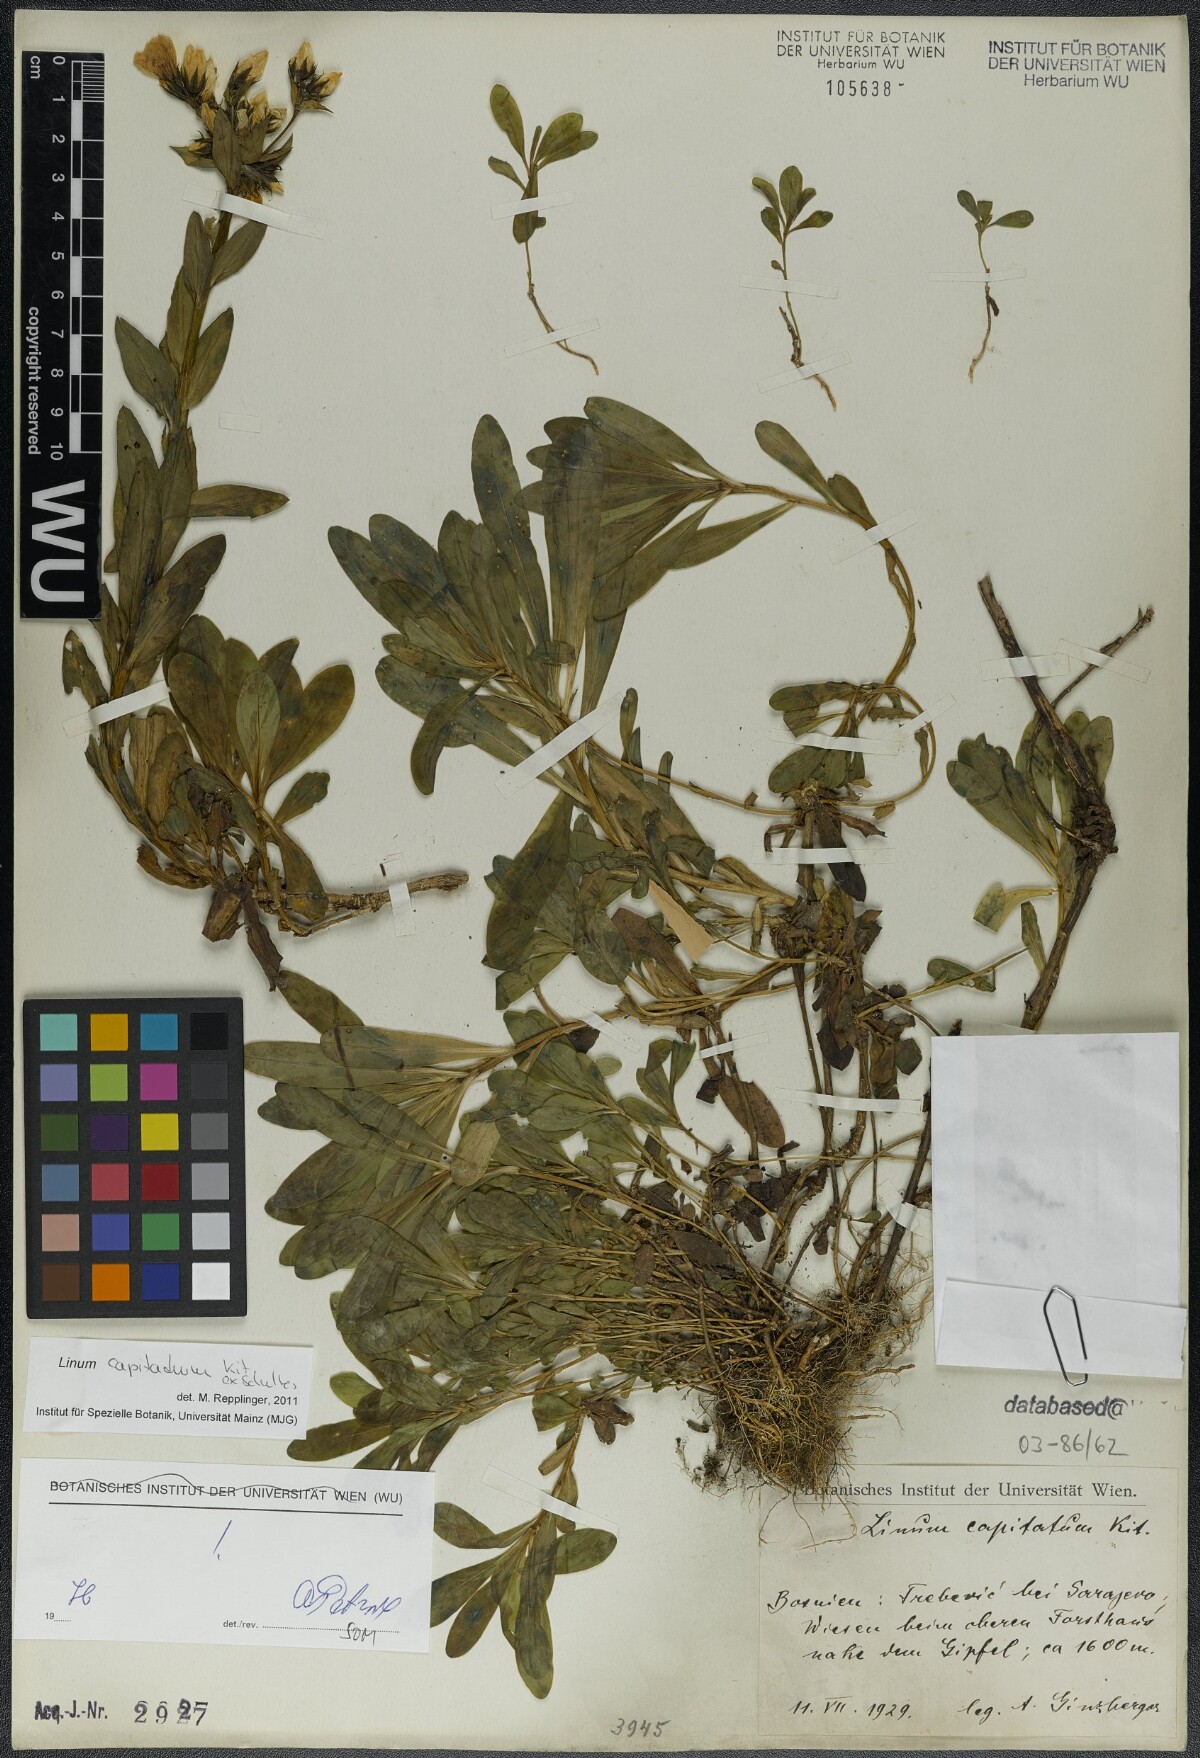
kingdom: Plantae
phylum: Tracheophyta
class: Magnoliopsida
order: Malpighiales
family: Linaceae
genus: Linum
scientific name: Linum capitatum
